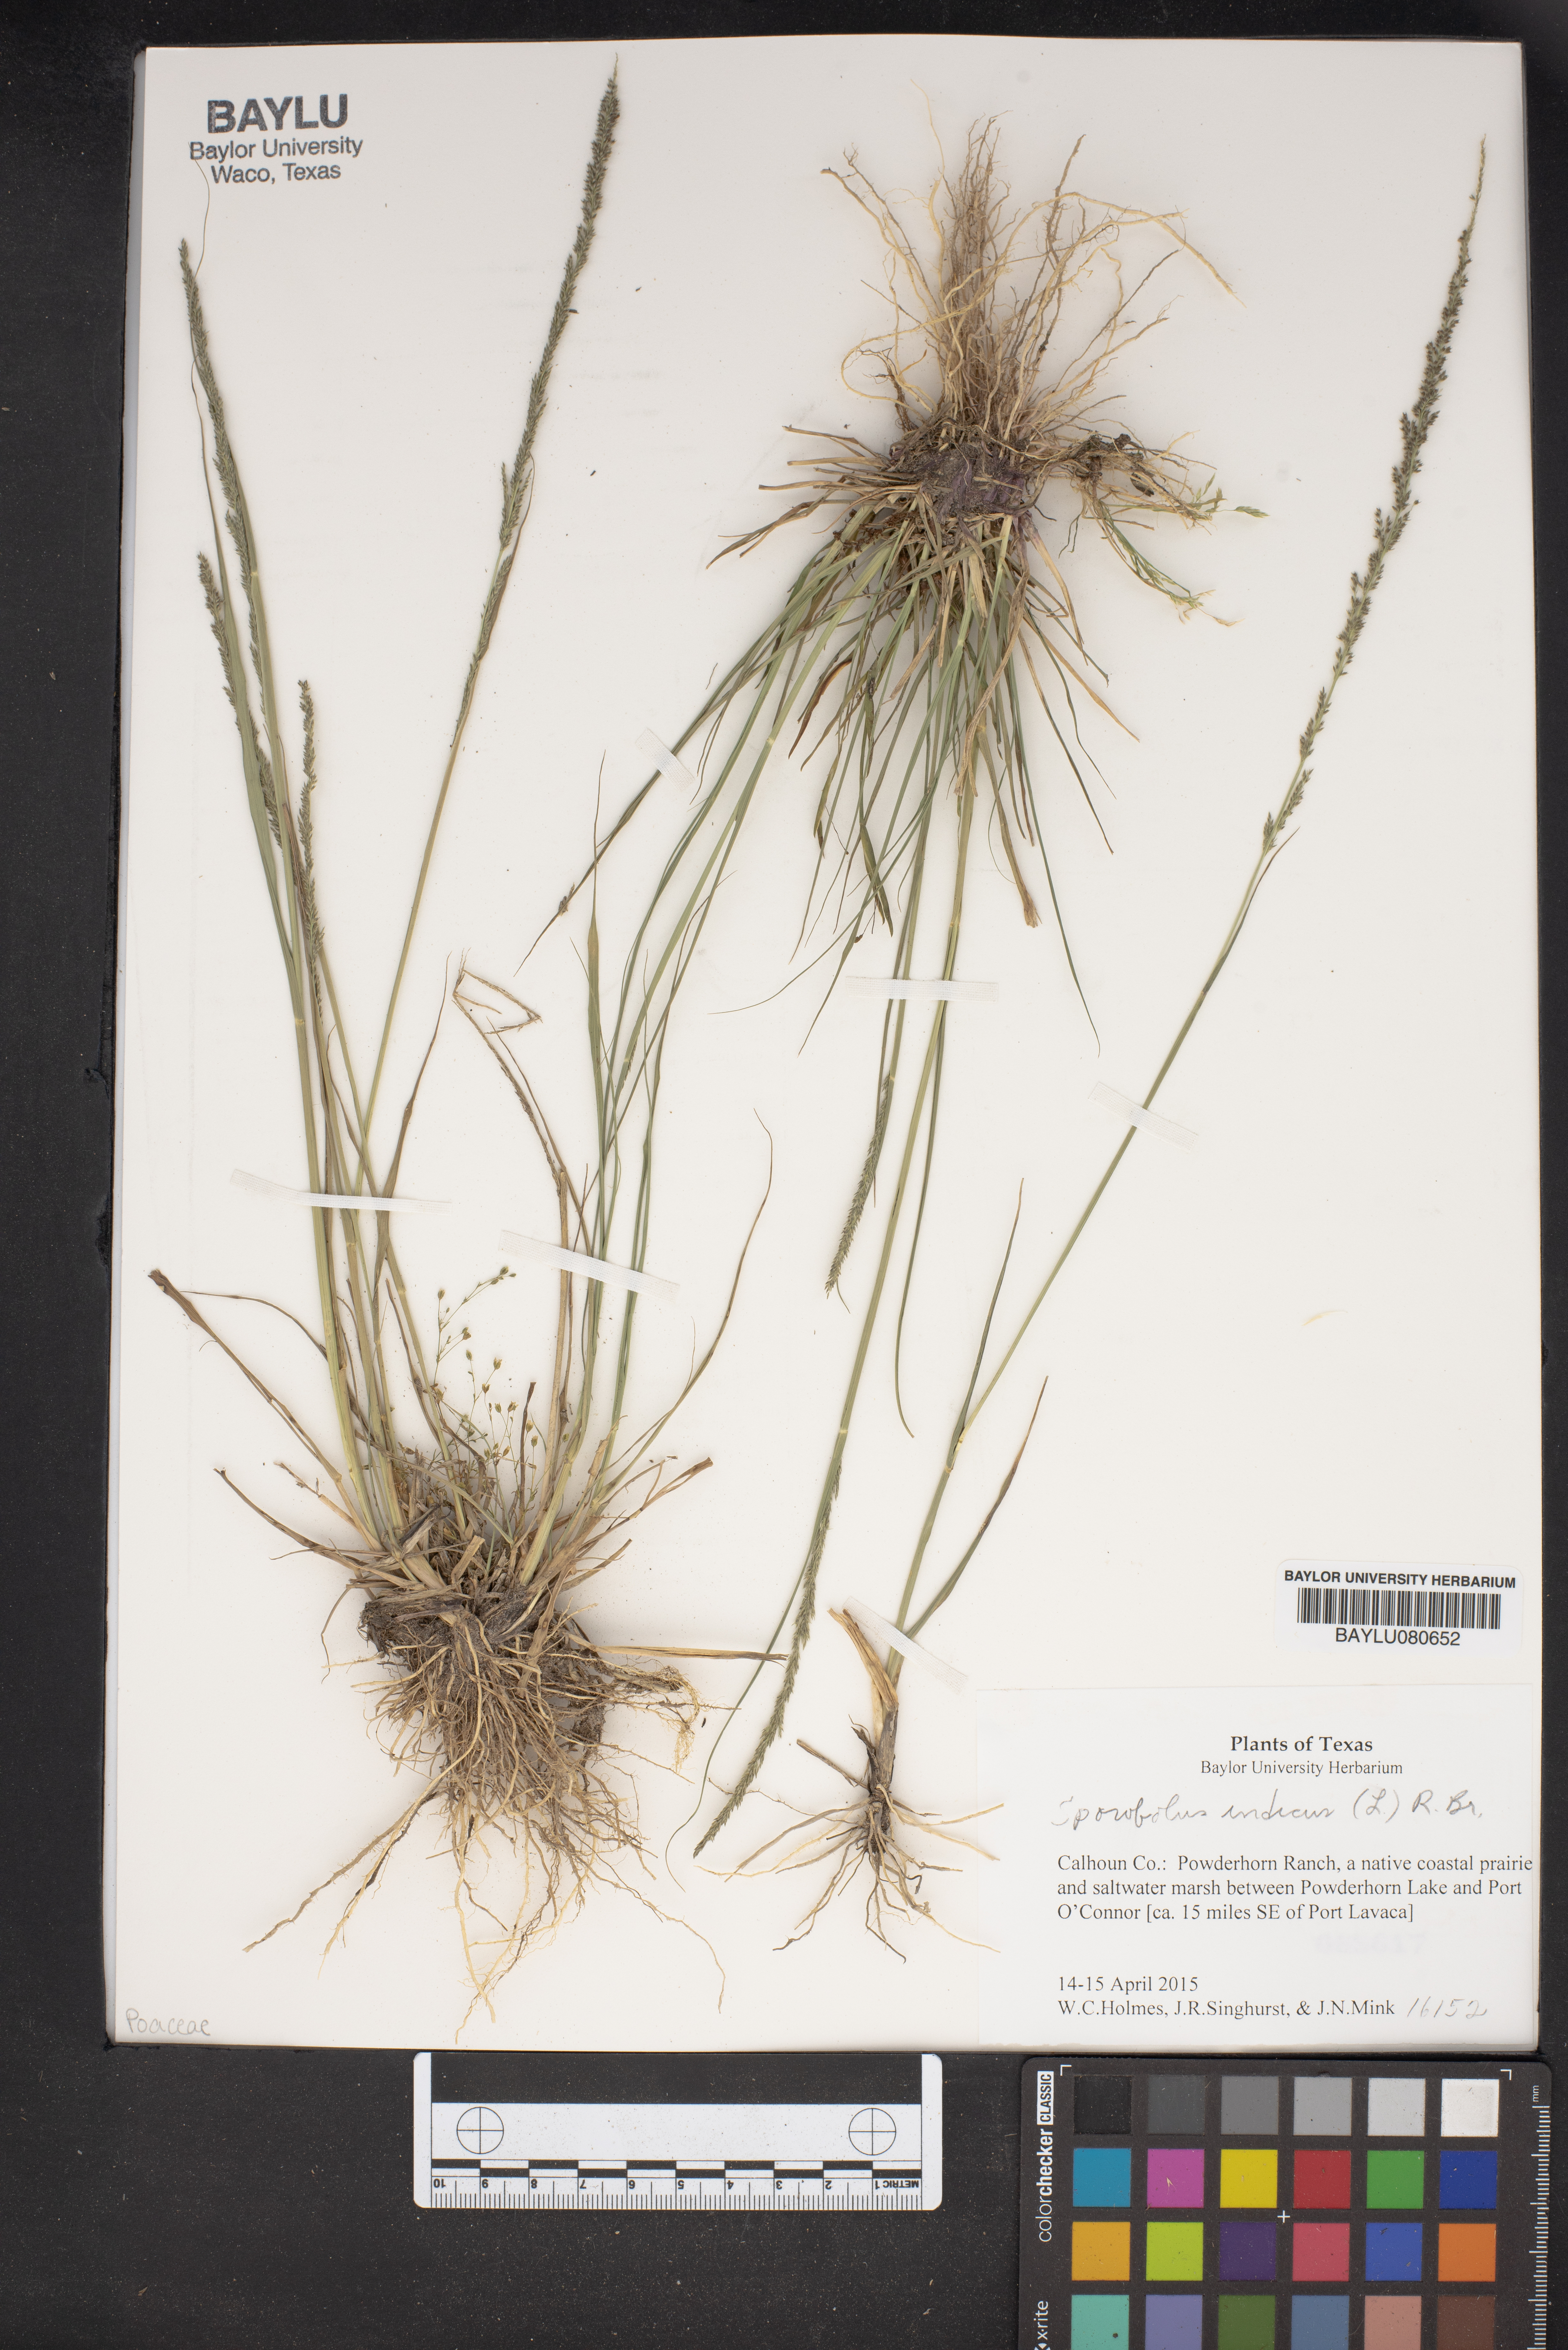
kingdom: Plantae
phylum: Tracheophyta
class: Liliopsida
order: Poales
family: Poaceae
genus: Sporobolus
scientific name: Sporobolus indicus
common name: Smut grass
